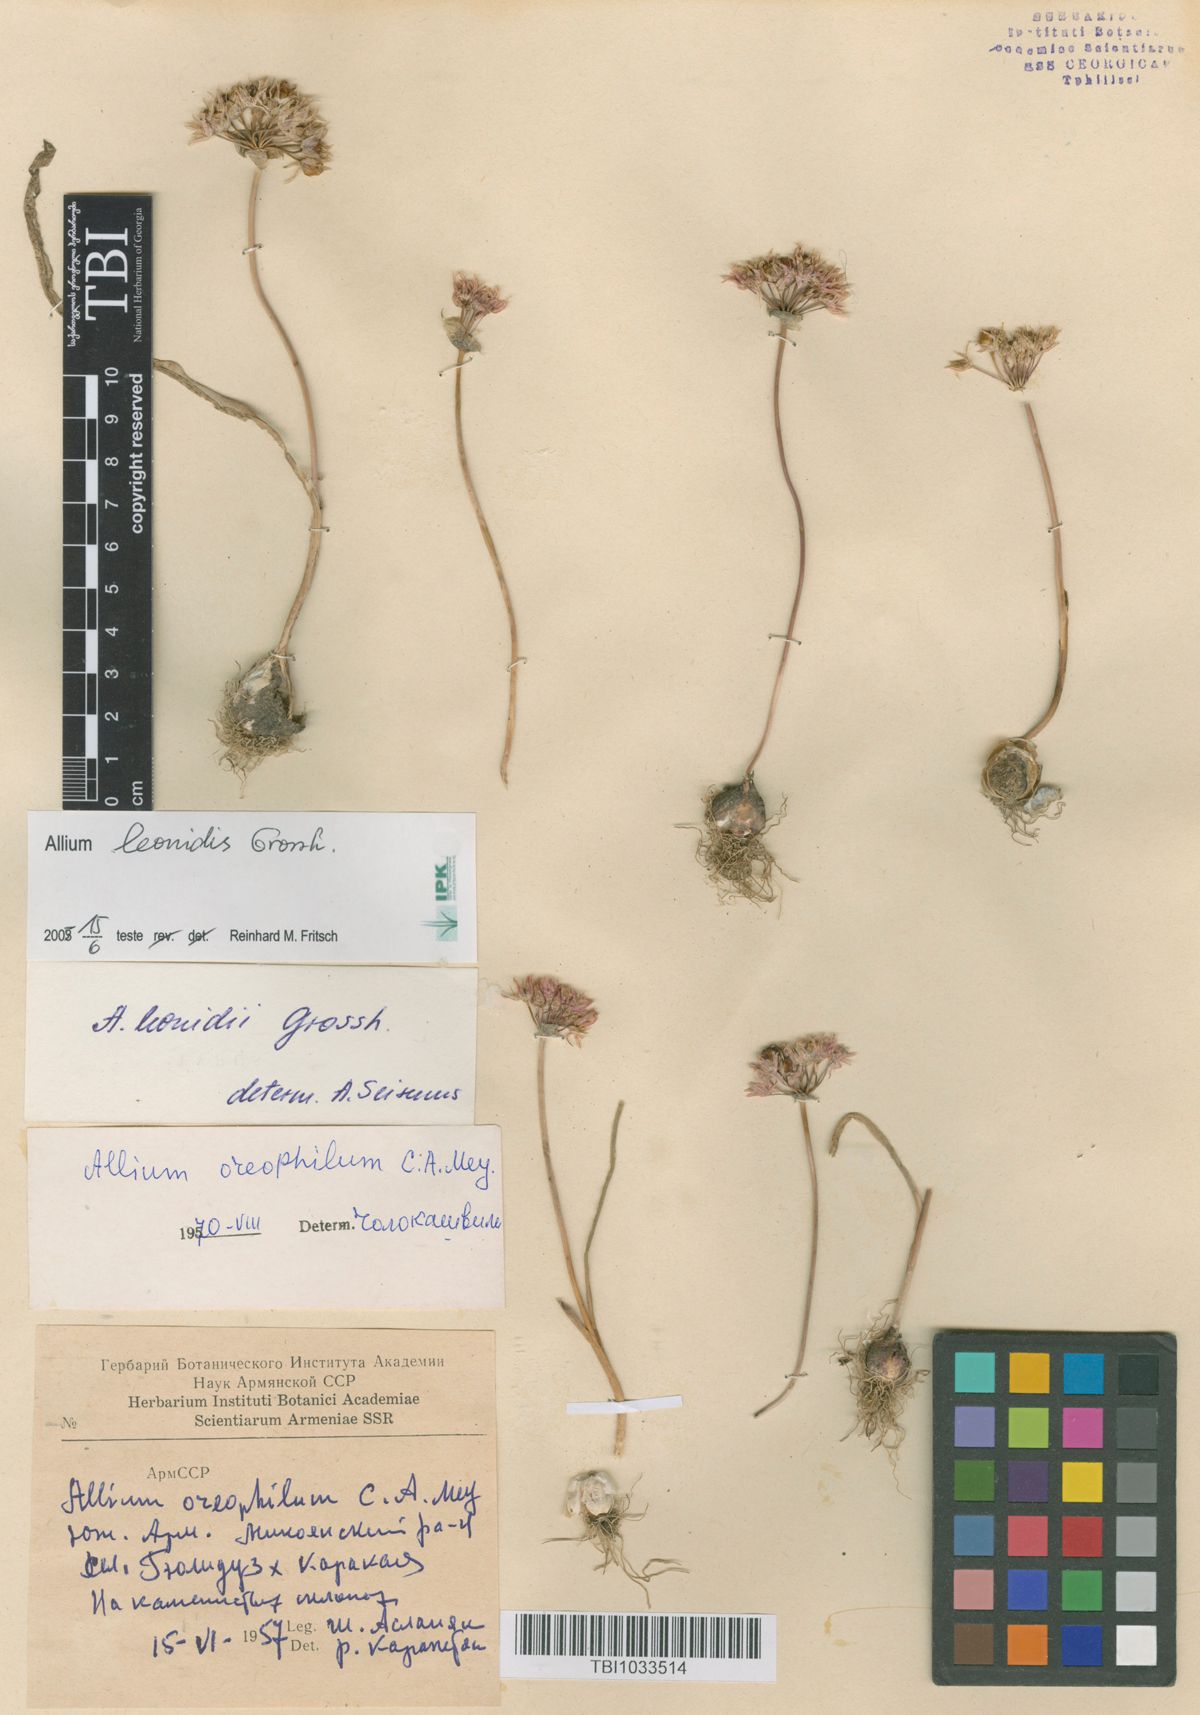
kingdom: Plantae
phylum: Tracheophyta
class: Liliopsida
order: Asparagales
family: Amaryllidaceae
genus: Allium
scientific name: Allium oreophilum
